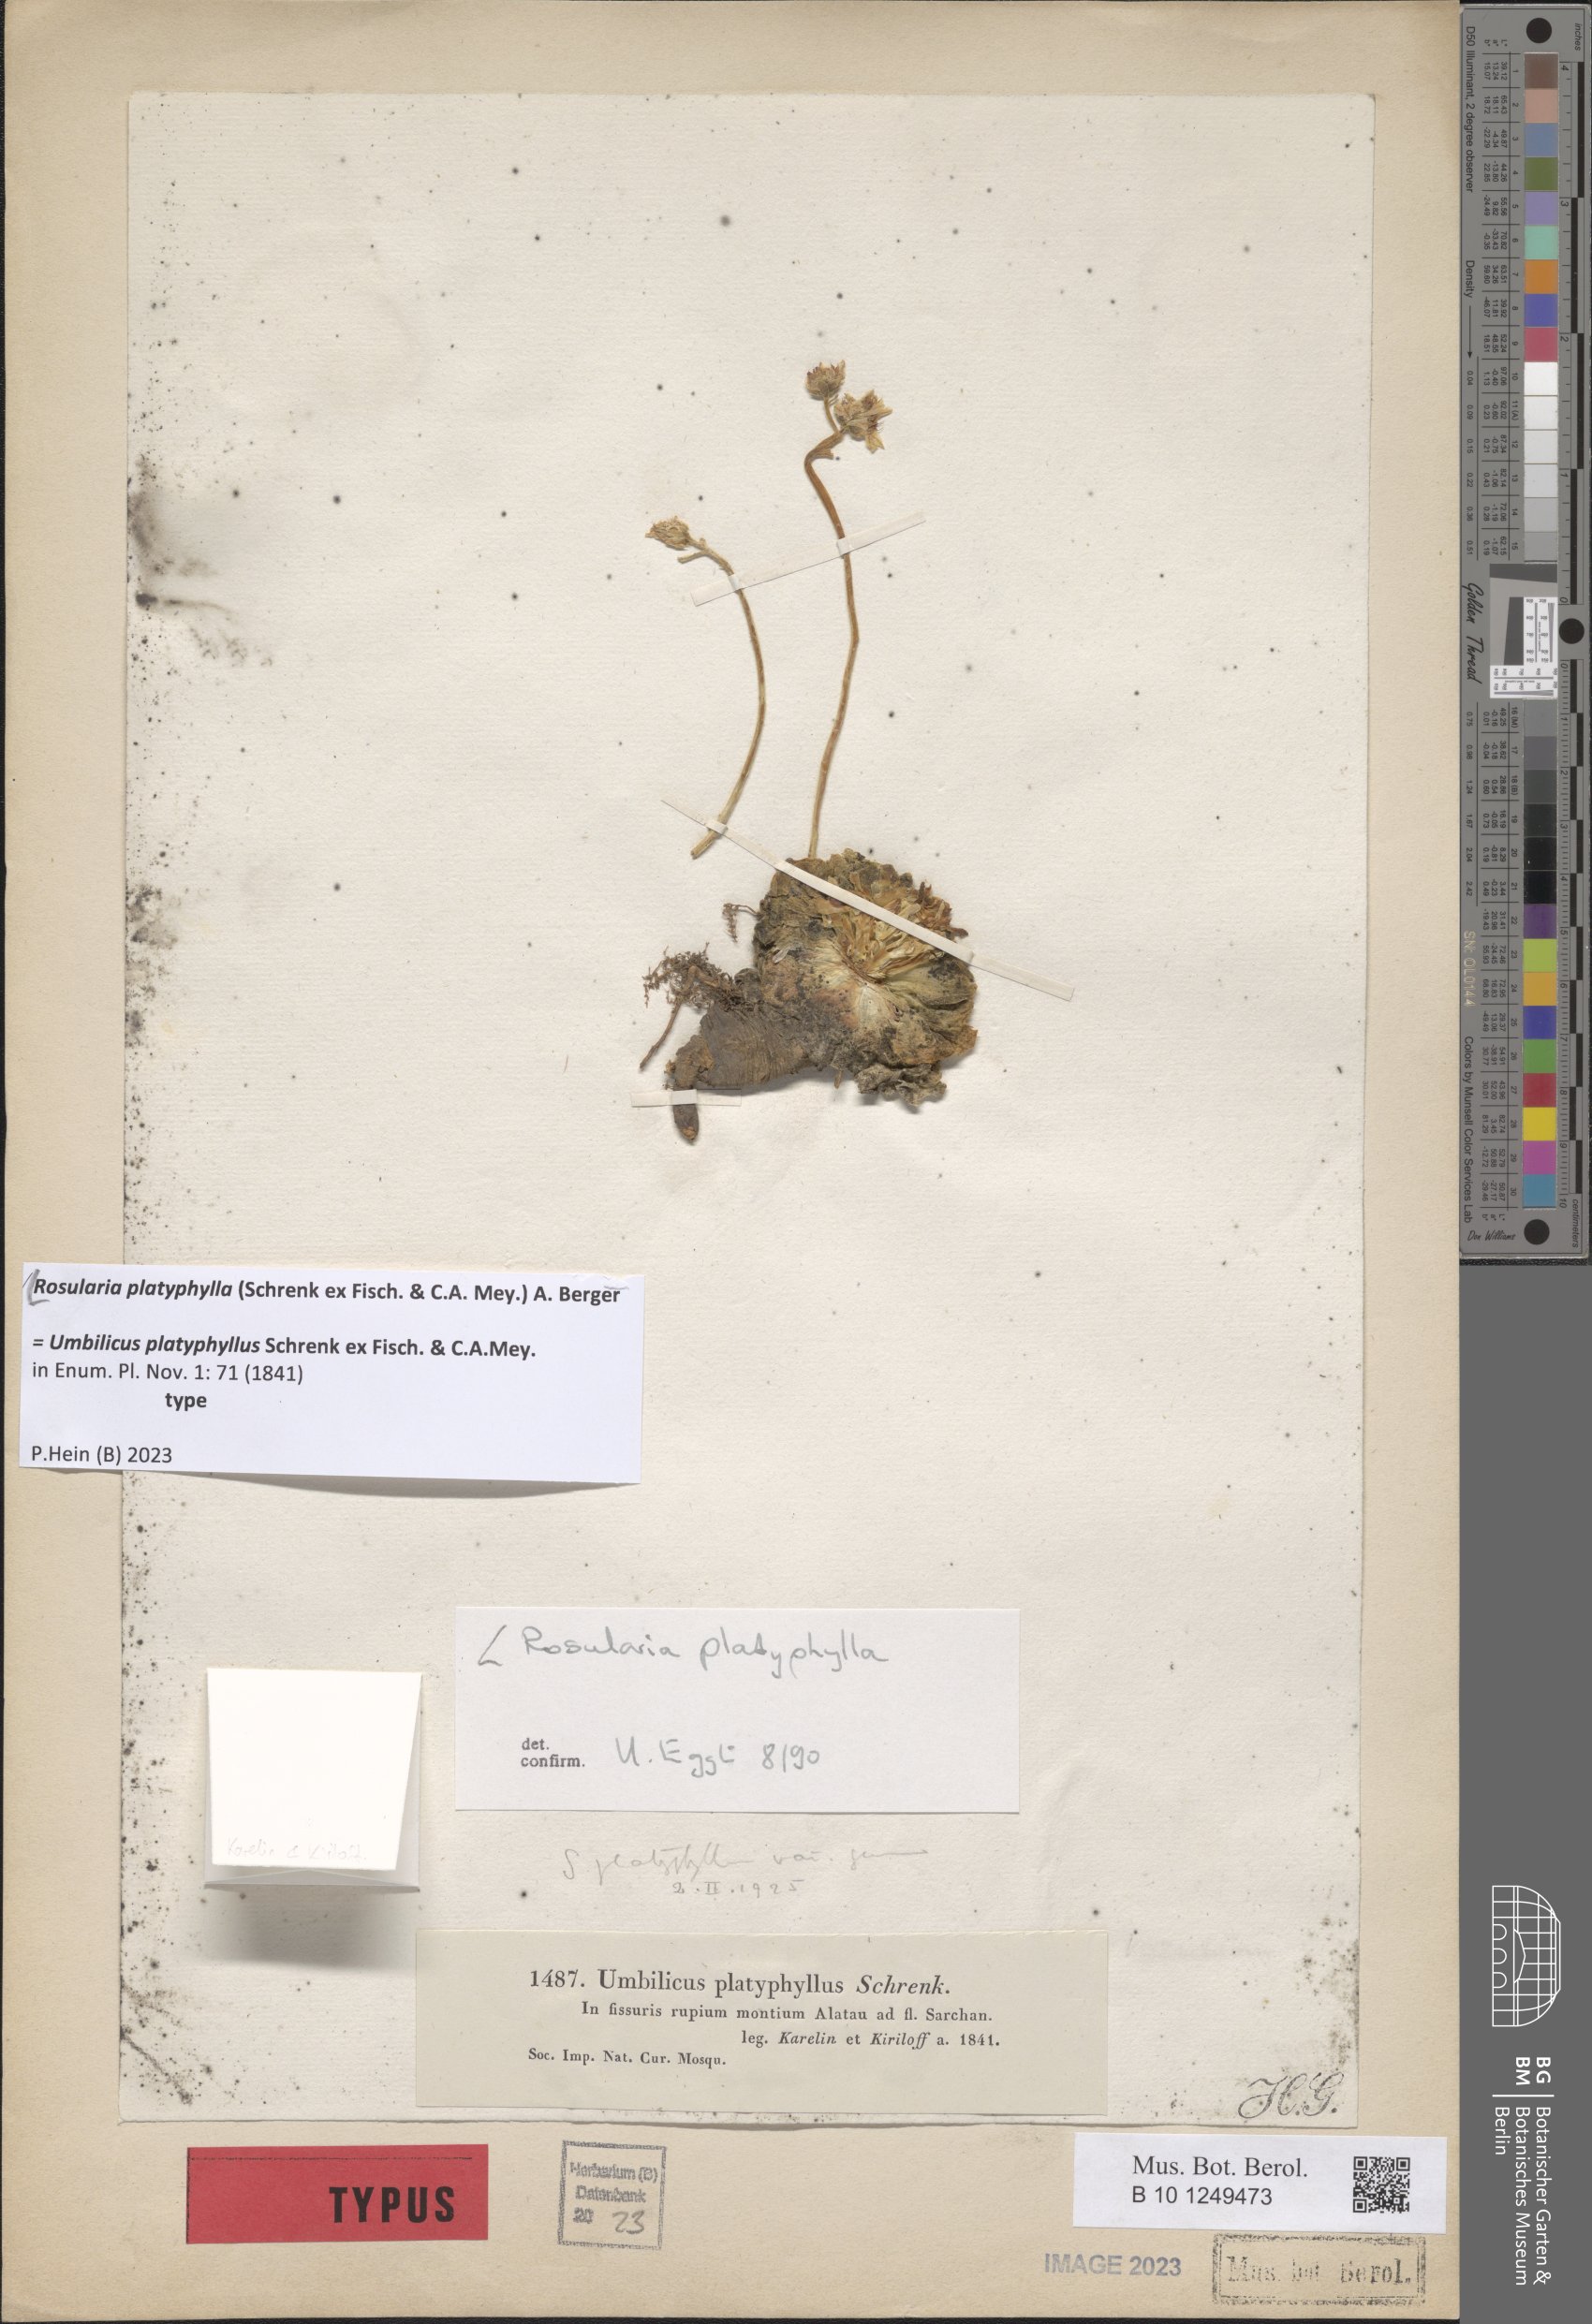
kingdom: Plantae
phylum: Tracheophyta
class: Magnoliopsida
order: Saxifragales
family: Crassulaceae
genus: Rosularia
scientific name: Rosularia platyphylla
